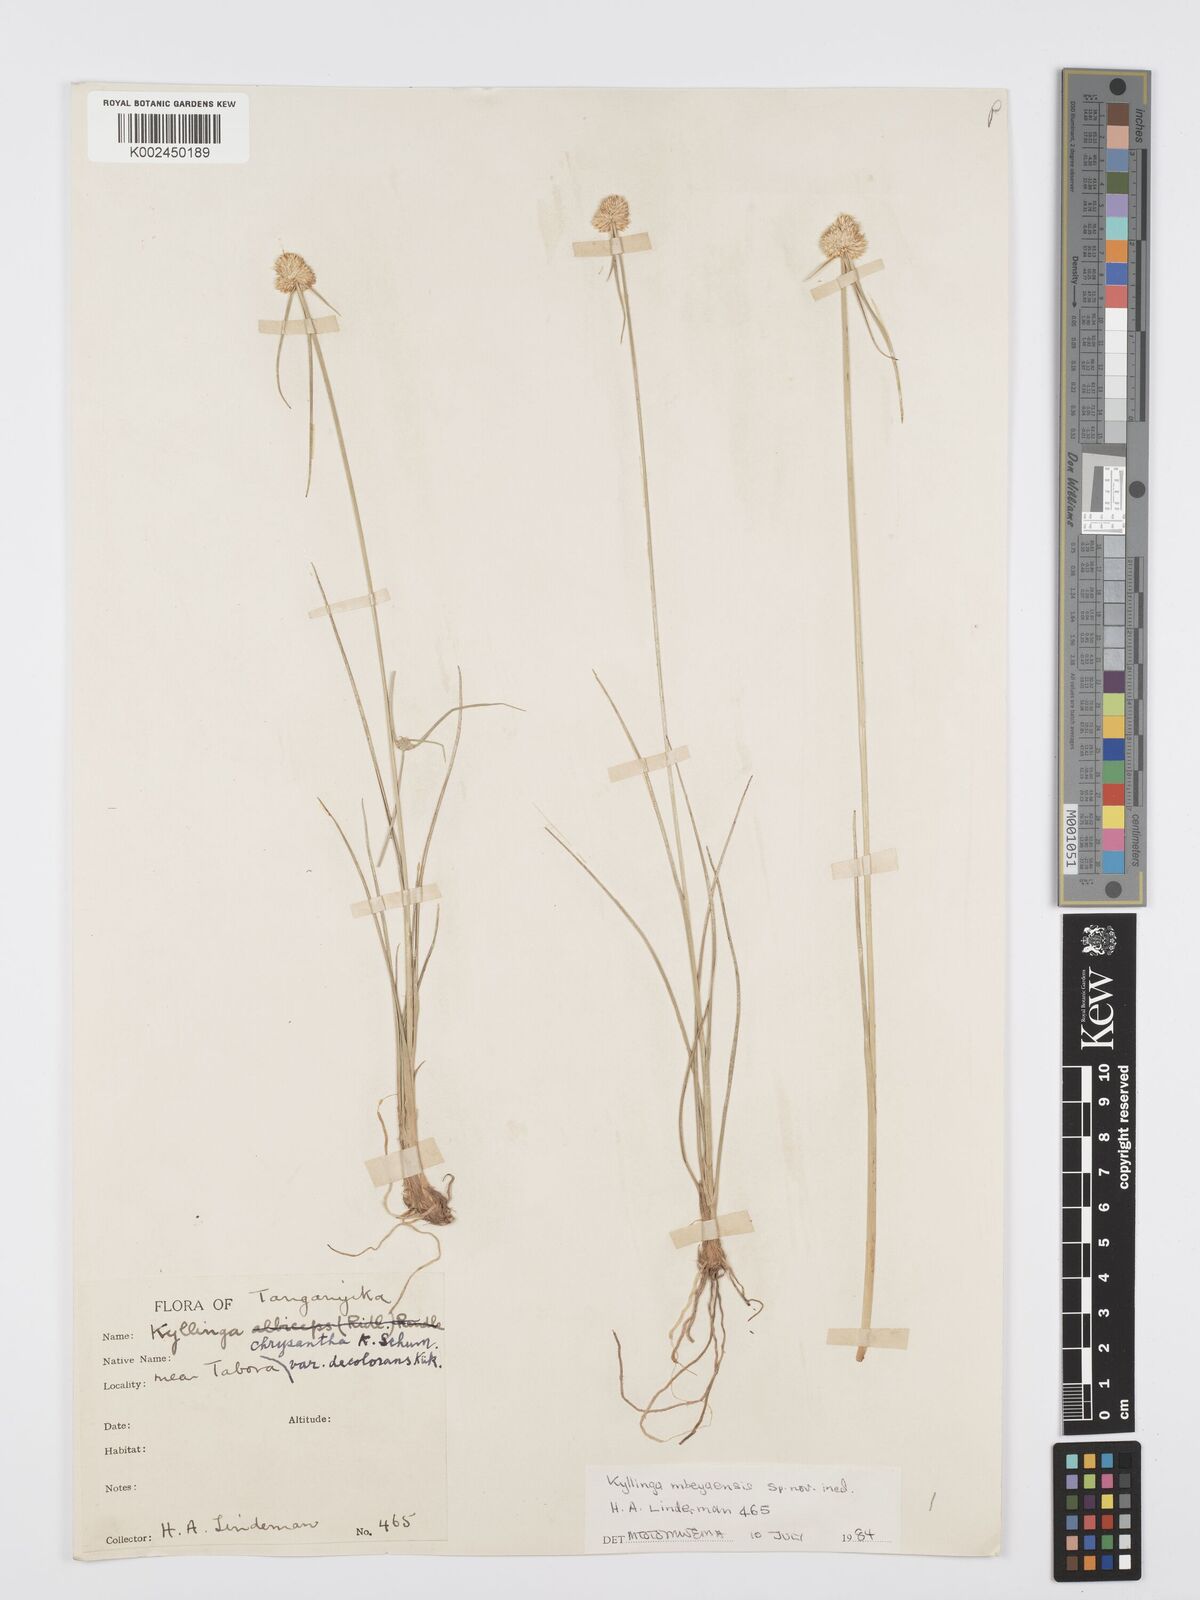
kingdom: Plantae
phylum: Tracheophyta
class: Liliopsida
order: Poales
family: Cyperaceae
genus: Cyperus
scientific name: Cyperus
